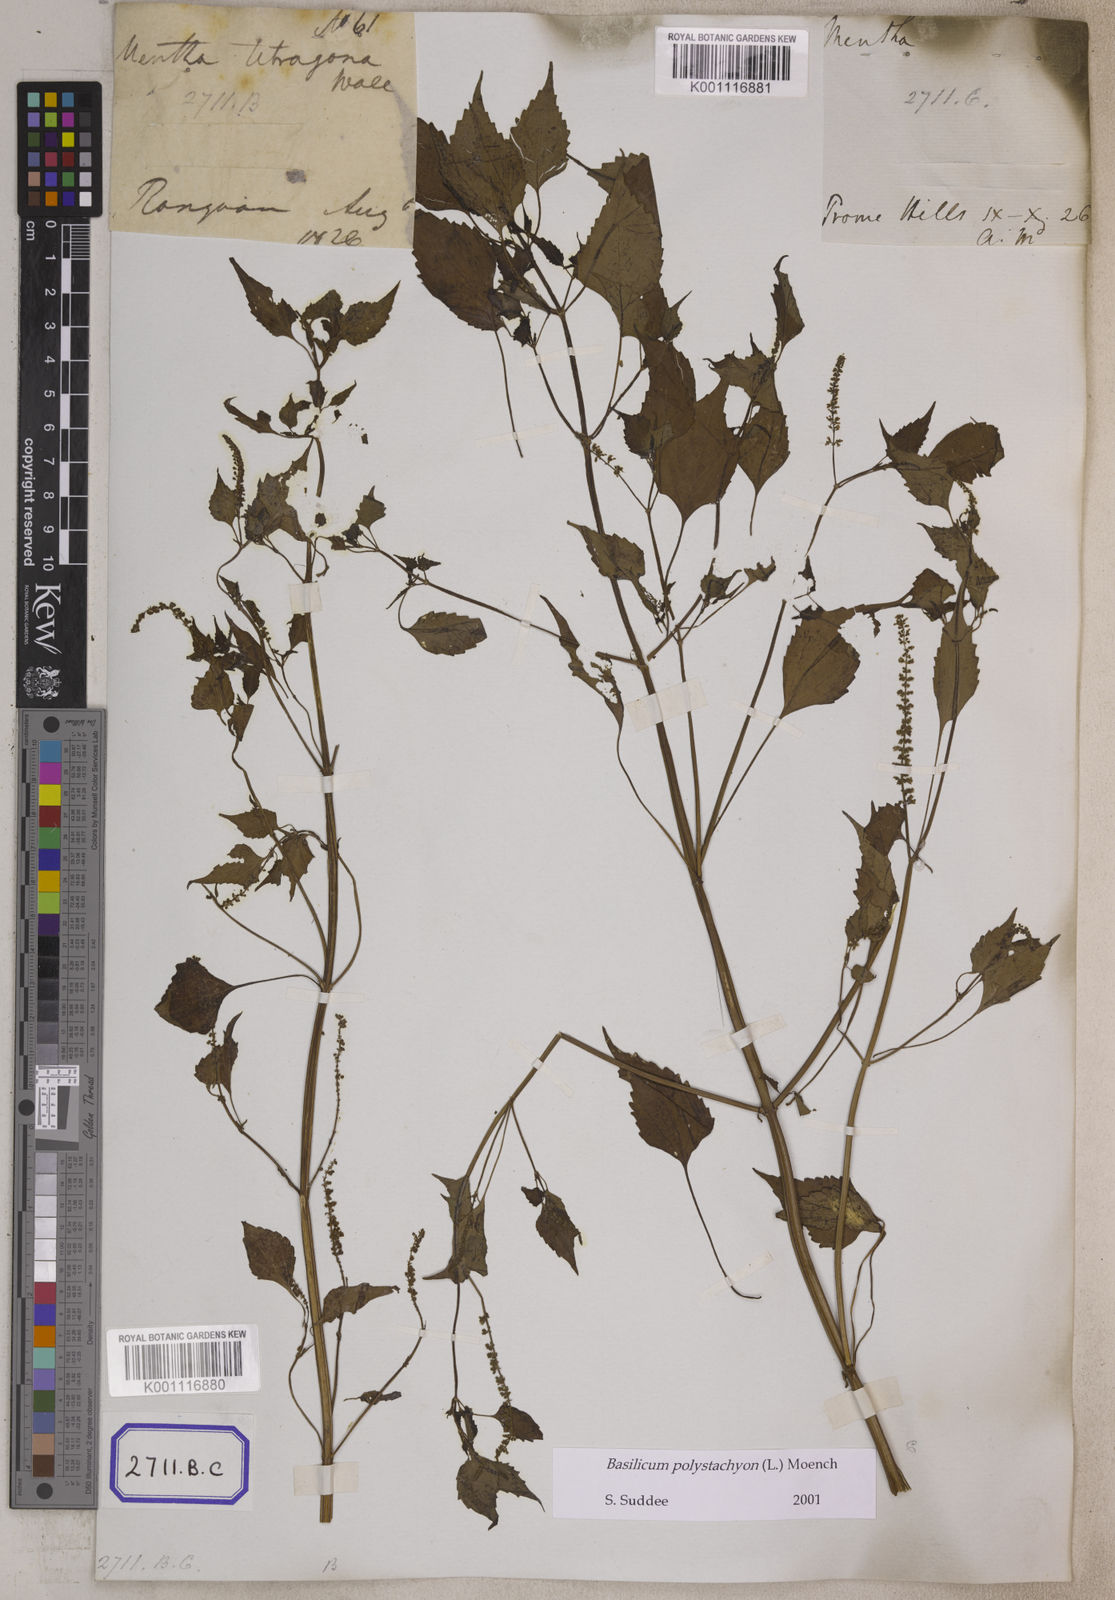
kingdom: Plantae
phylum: Tracheophyta
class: Magnoliopsida
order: Lamiales
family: Lamiaceae
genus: Basilicum
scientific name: Basilicum polystachyon
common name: Musk-basil
